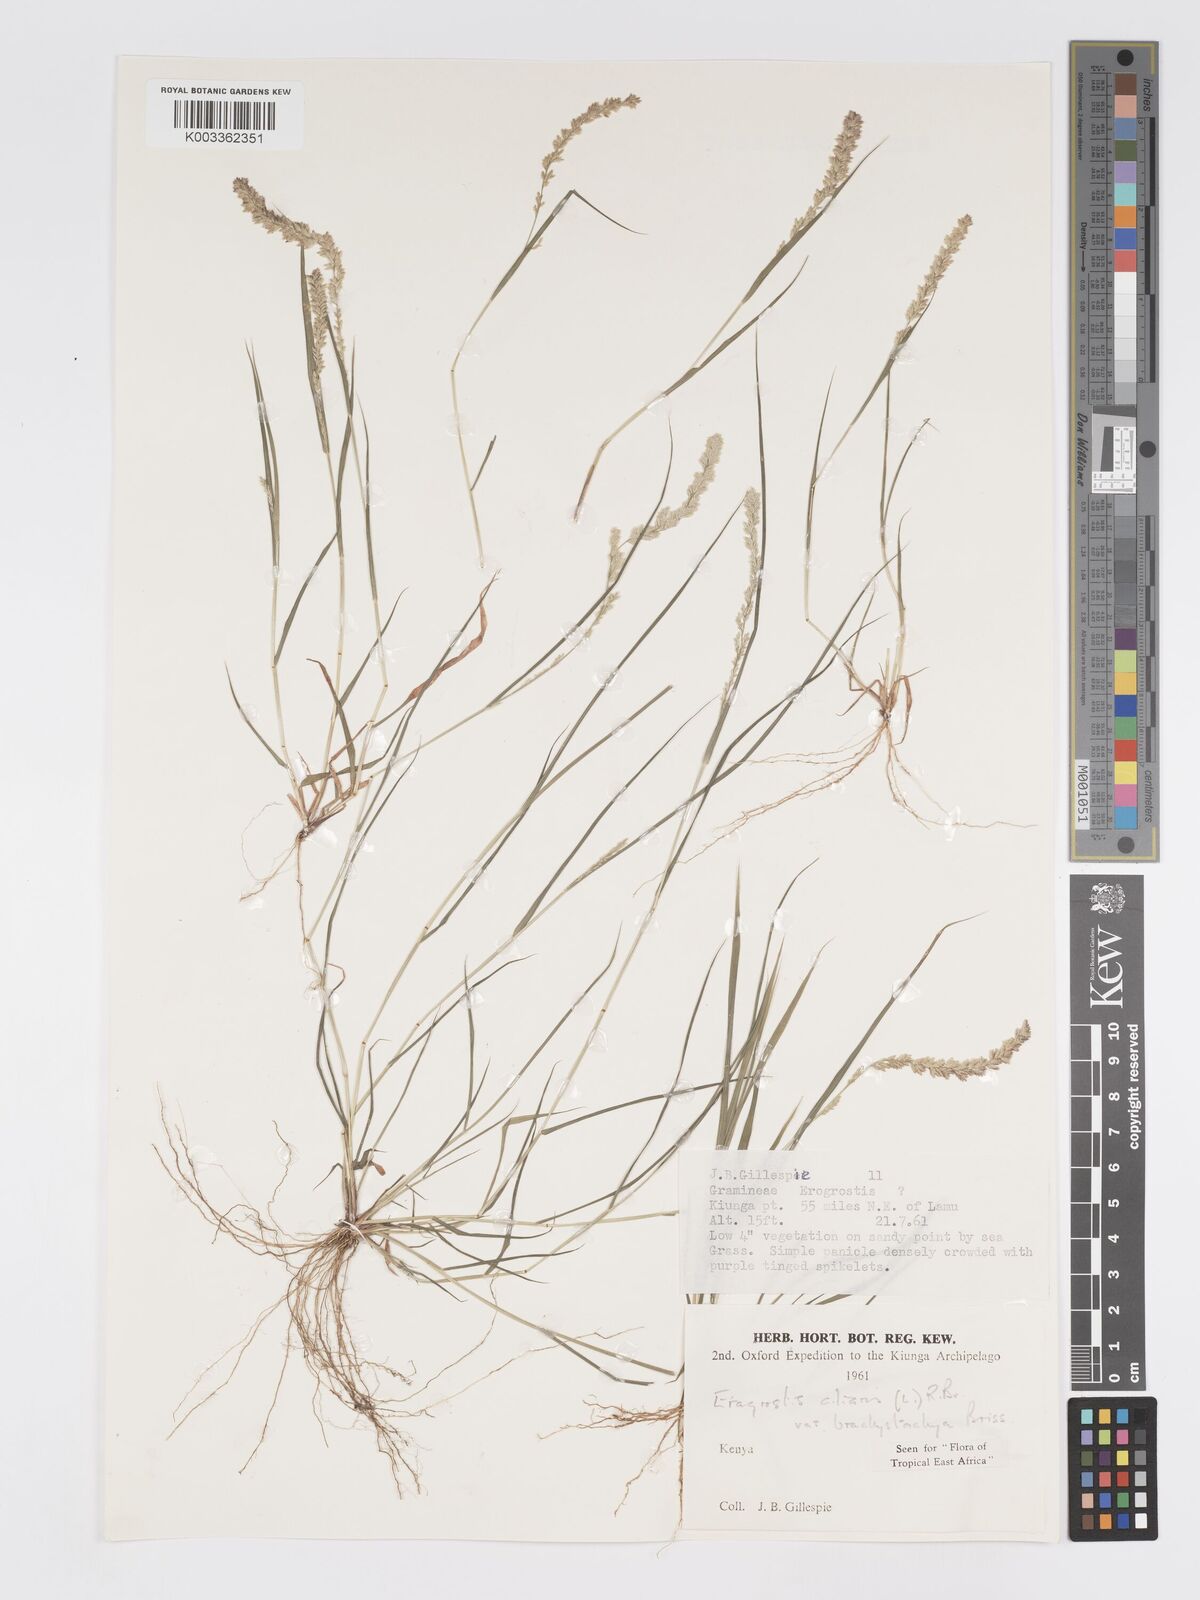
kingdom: Plantae
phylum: Tracheophyta
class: Liliopsida
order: Poales
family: Poaceae
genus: Eragrostis
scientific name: Eragrostis ciliaris
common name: Gophertail lovegrass
